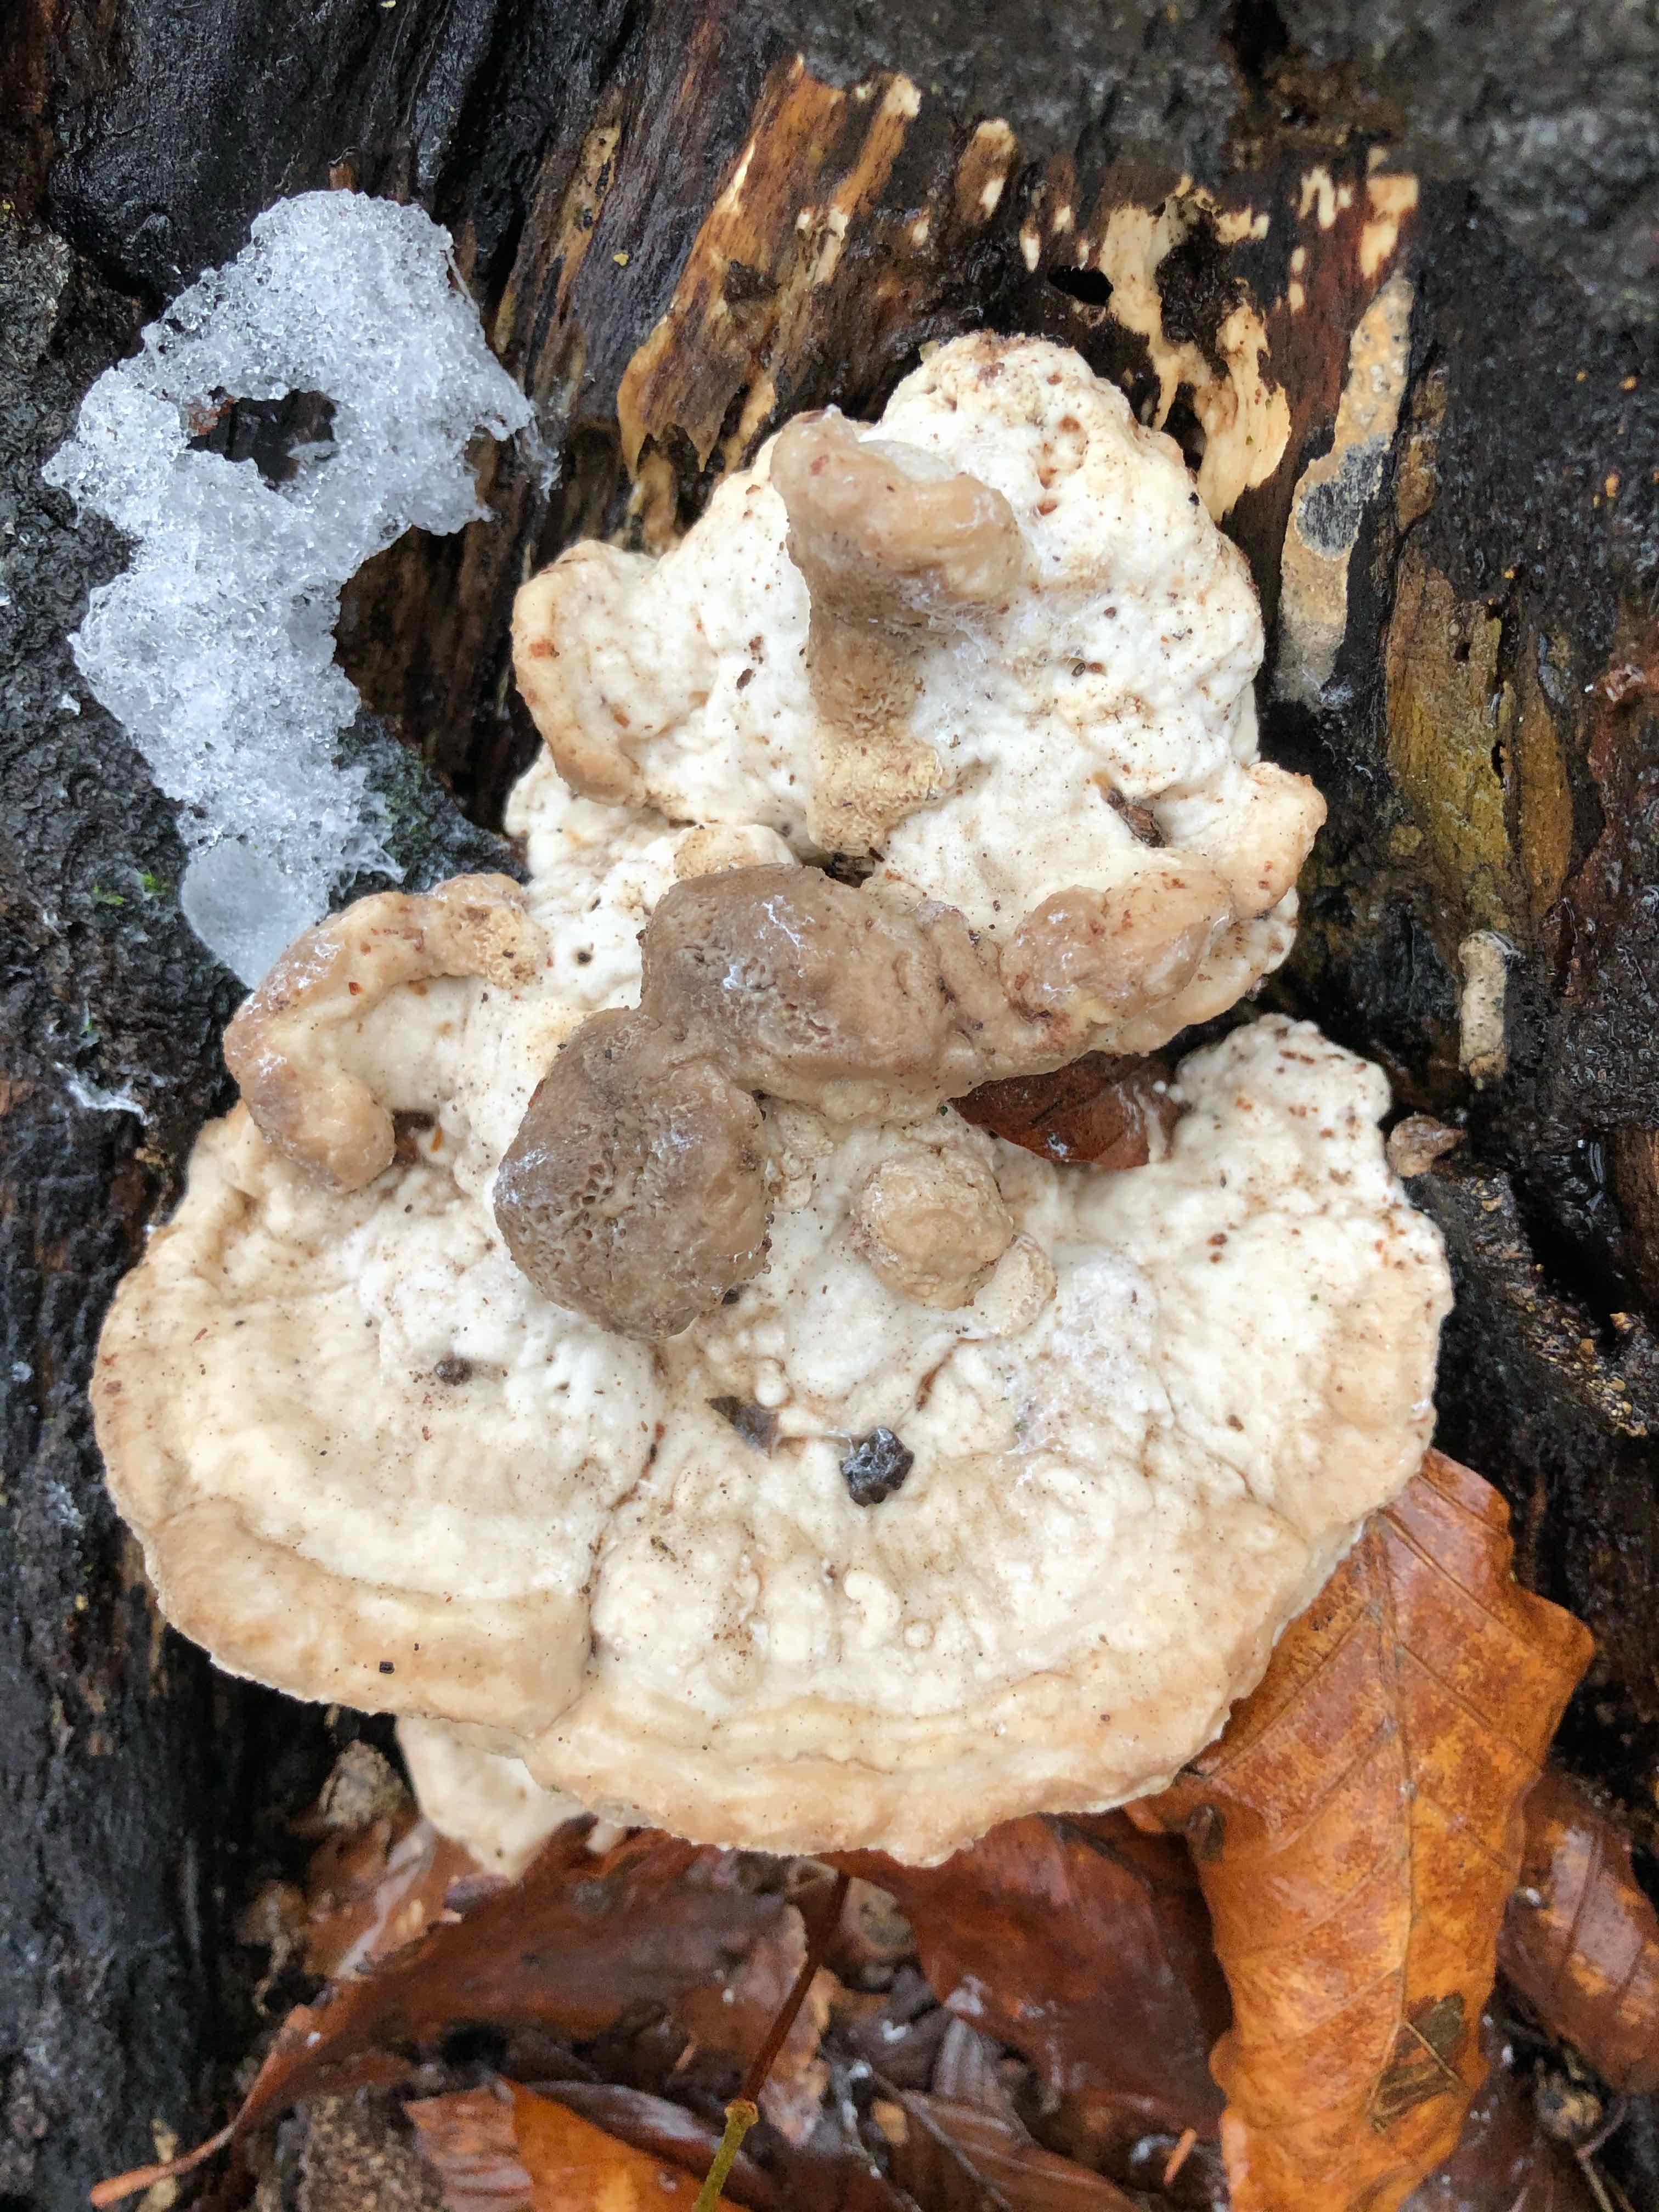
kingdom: Fungi
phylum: Basidiomycota
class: Agaricomycetes
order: Polyporales
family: Polyporaceae
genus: Trametes
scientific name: Trametes gibbosa
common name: puklet læderporesvamp
